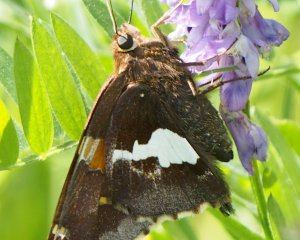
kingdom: Animalia
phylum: Arthropoda
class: Insecta
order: Lepidoptera
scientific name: Lepidoptera
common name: Butterflies
